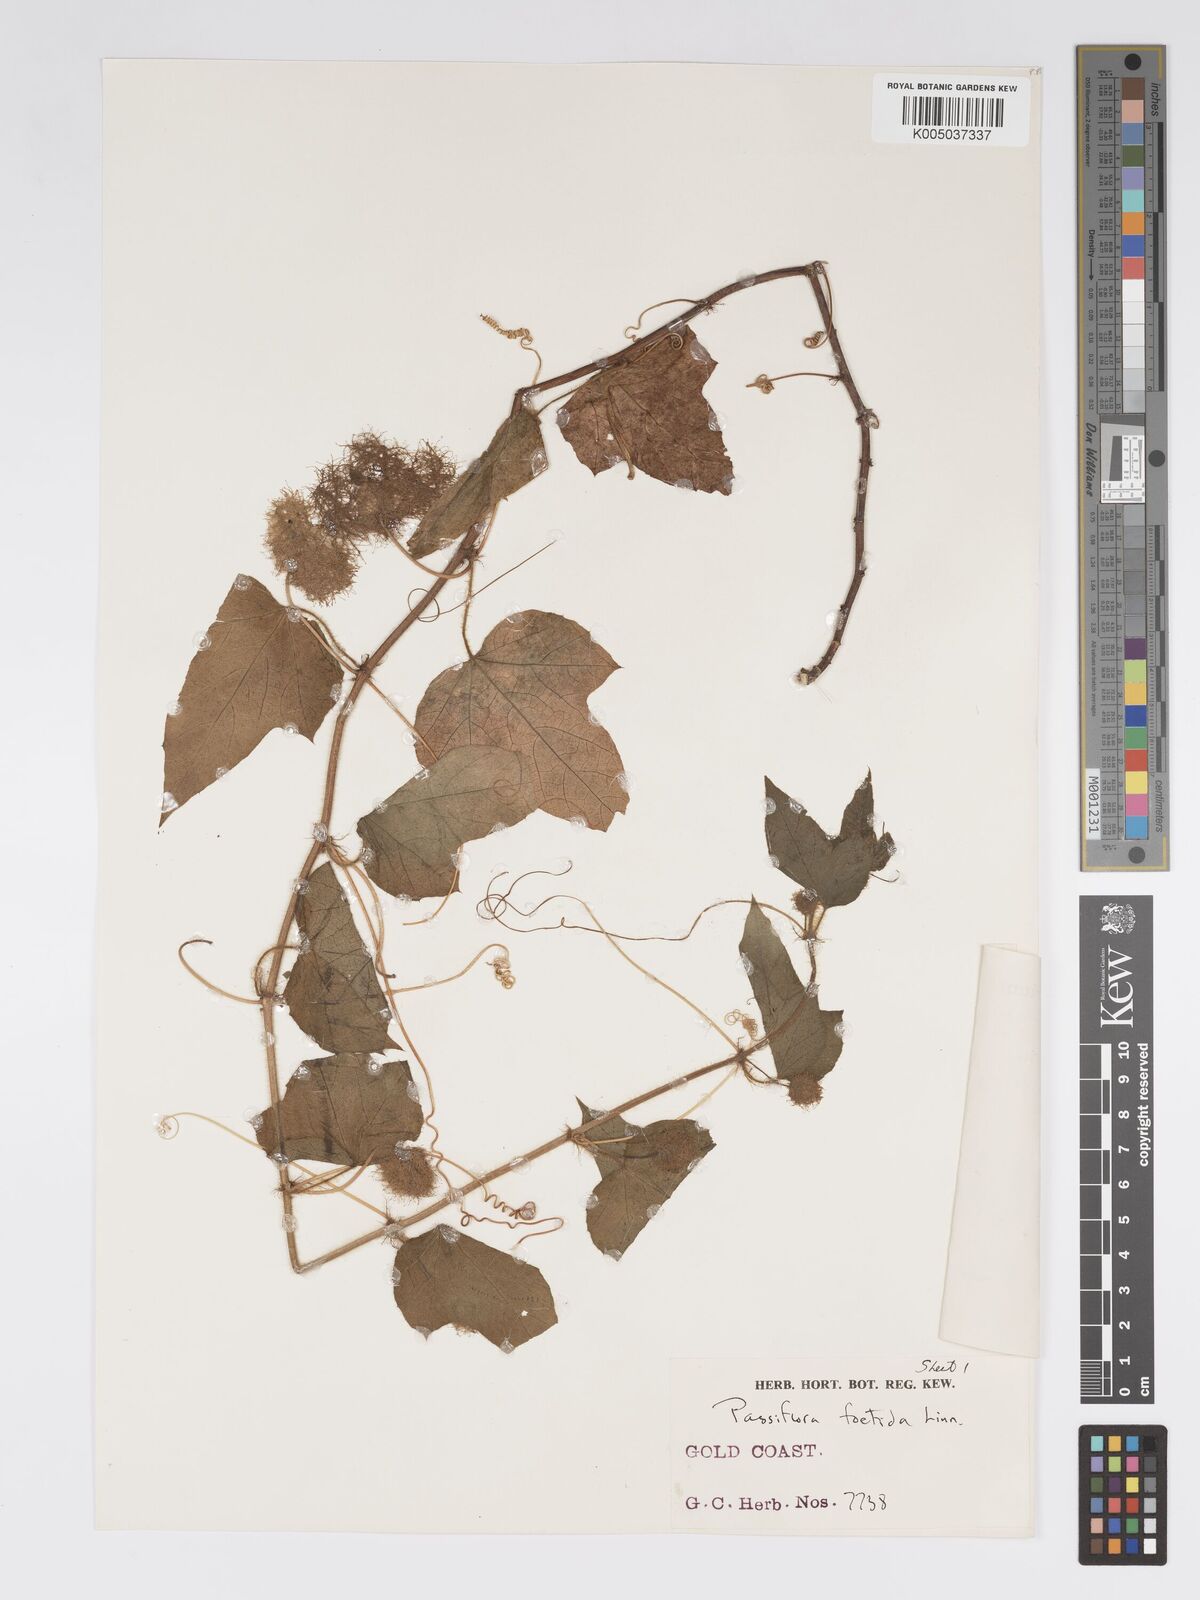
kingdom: Plantae
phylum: Tracheophyta
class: Magnoliopsida
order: Malpighiales
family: Passifloraceae
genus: Passiflora
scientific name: Passiflora foetida
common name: Fetid passionflower
